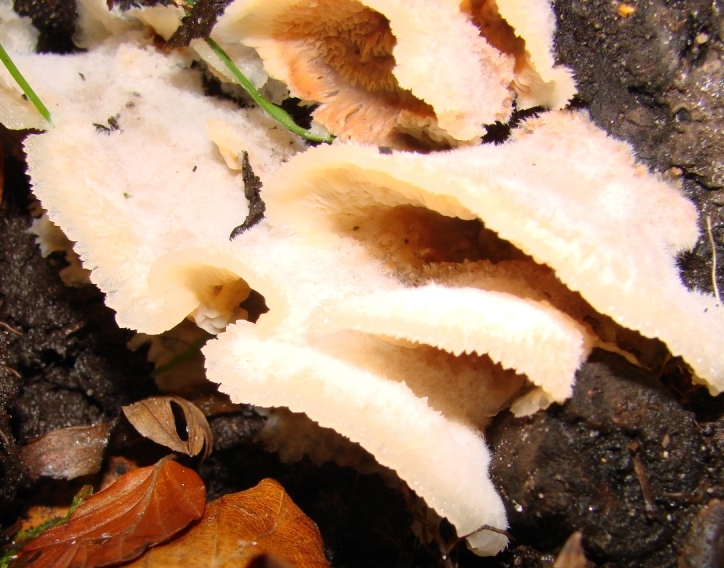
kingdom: Fungi
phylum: Basidiomycota
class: Agaricomycetes
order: Polyporales
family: Meruliaceae
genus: Phlebia
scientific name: Phlebia tremellosa
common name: bævrende åresvamp
